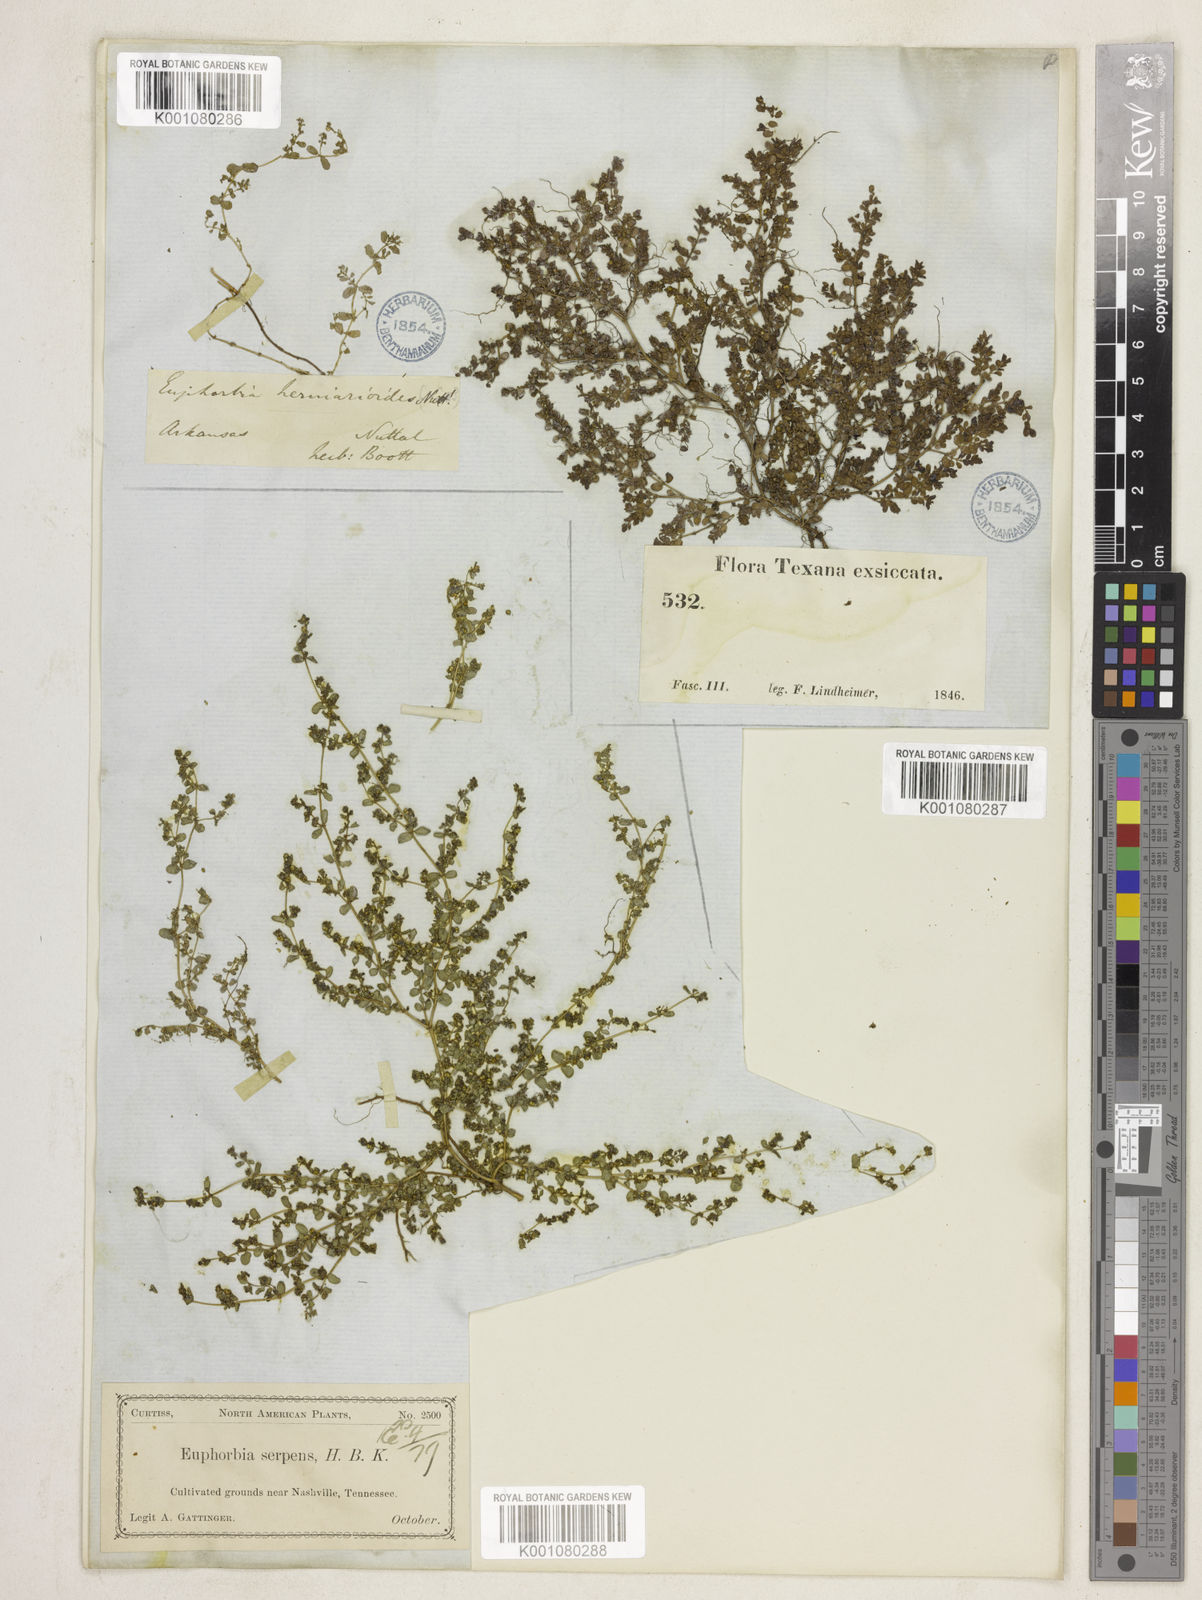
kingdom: Plantae
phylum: Tracheophyta
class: Magnoliopsida
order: Malpighiales
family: Euphorbiaceae
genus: Euphorbia
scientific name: Euphorbia
